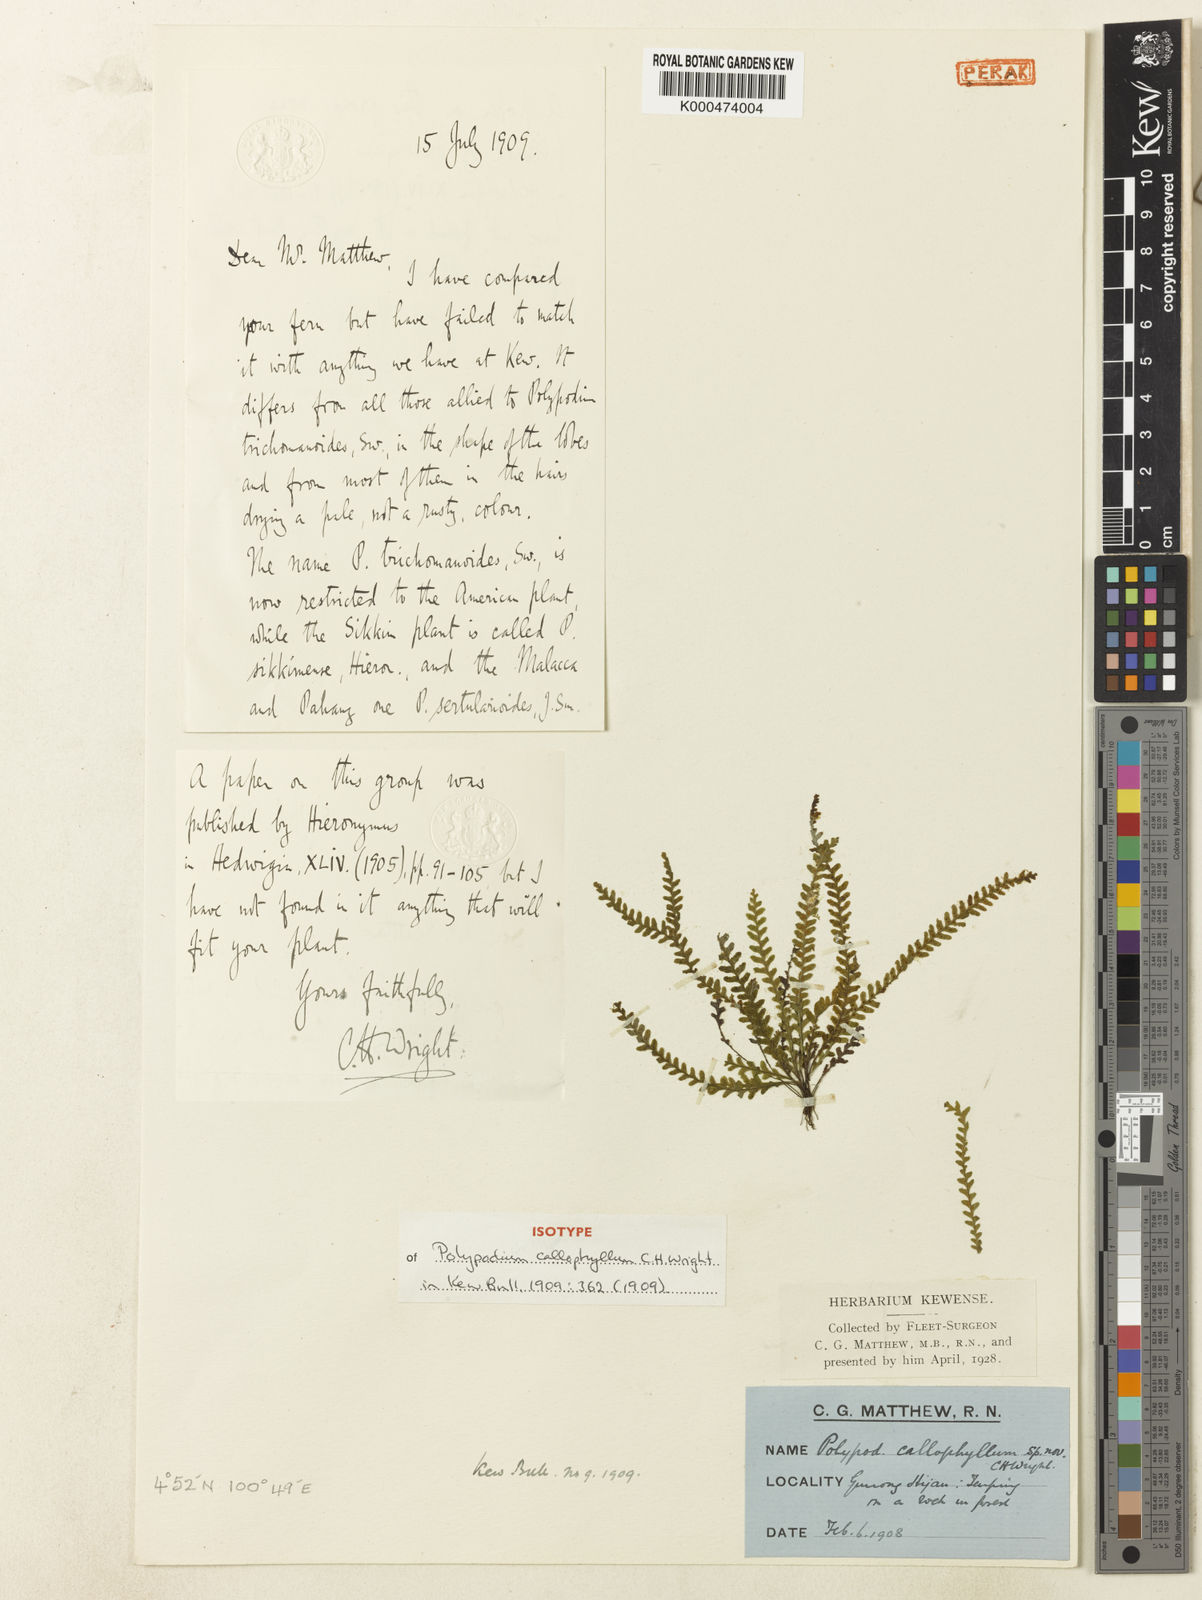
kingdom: Plantae
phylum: Tracheophyta
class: Polypodiopsida
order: Polypodiales
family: Polypodiaceae
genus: Tomophyllum
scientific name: Tomophyllum minutum
